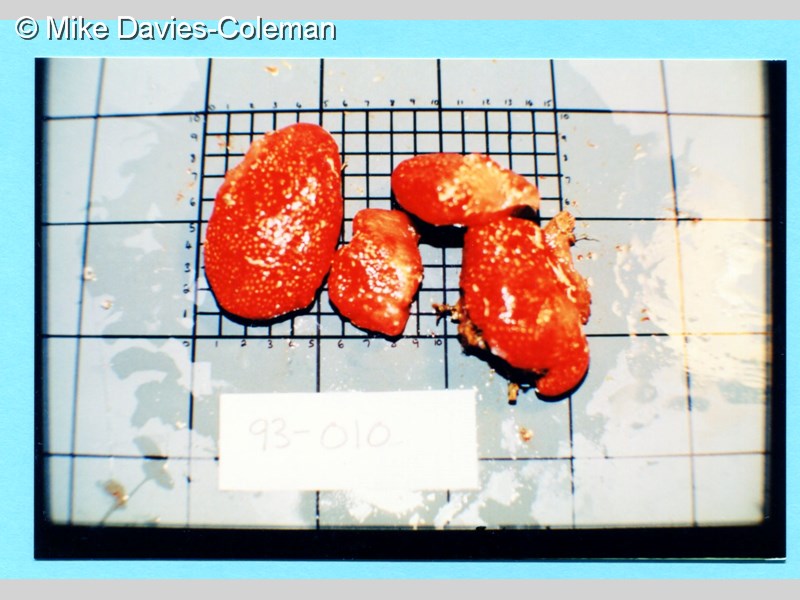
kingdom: Animalia
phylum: Chordata
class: Ascidiacea
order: Aplousobranchia
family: Polycitoridae
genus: Eudistoma
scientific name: Eudistoma
